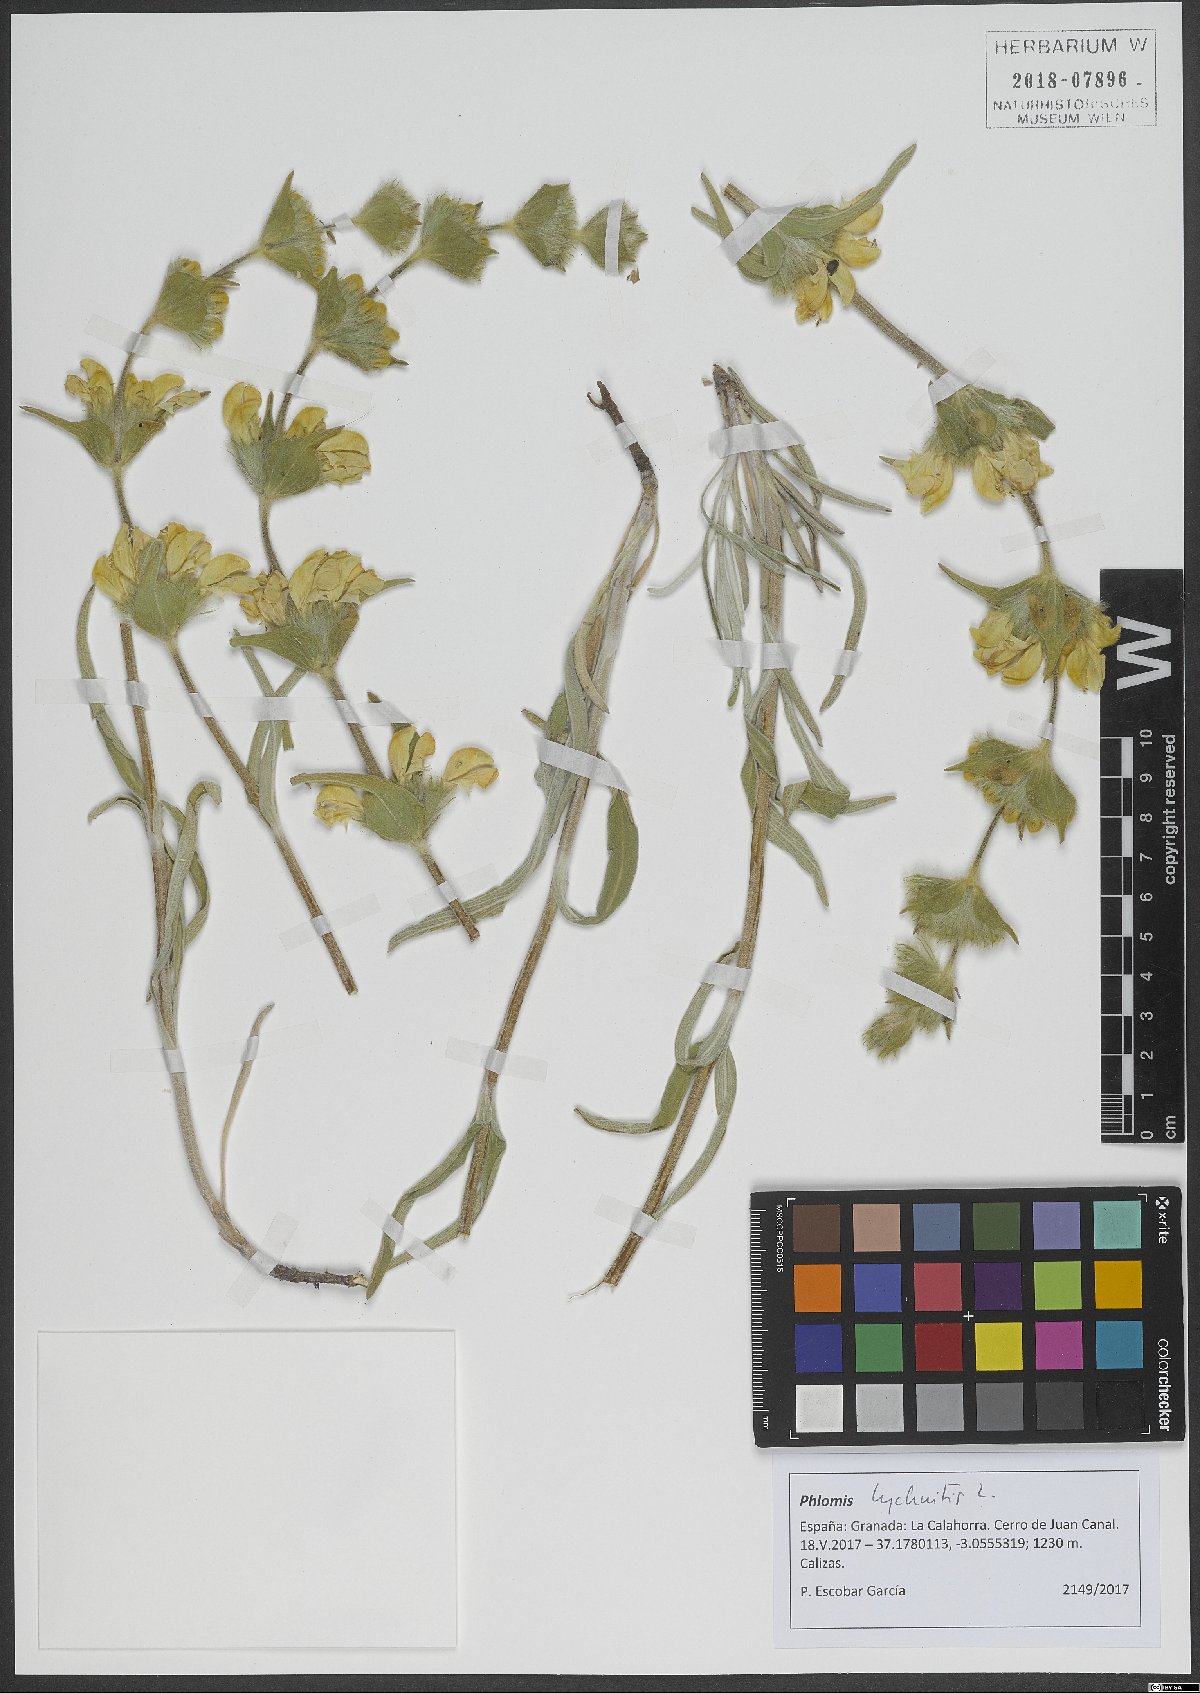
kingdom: Plantae
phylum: Tracheophyta
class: Magnoliopsida
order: Lamiales
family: Lamiaceae
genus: Phlomis
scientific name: Phlomis lychnitis
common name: Lampwickplant
